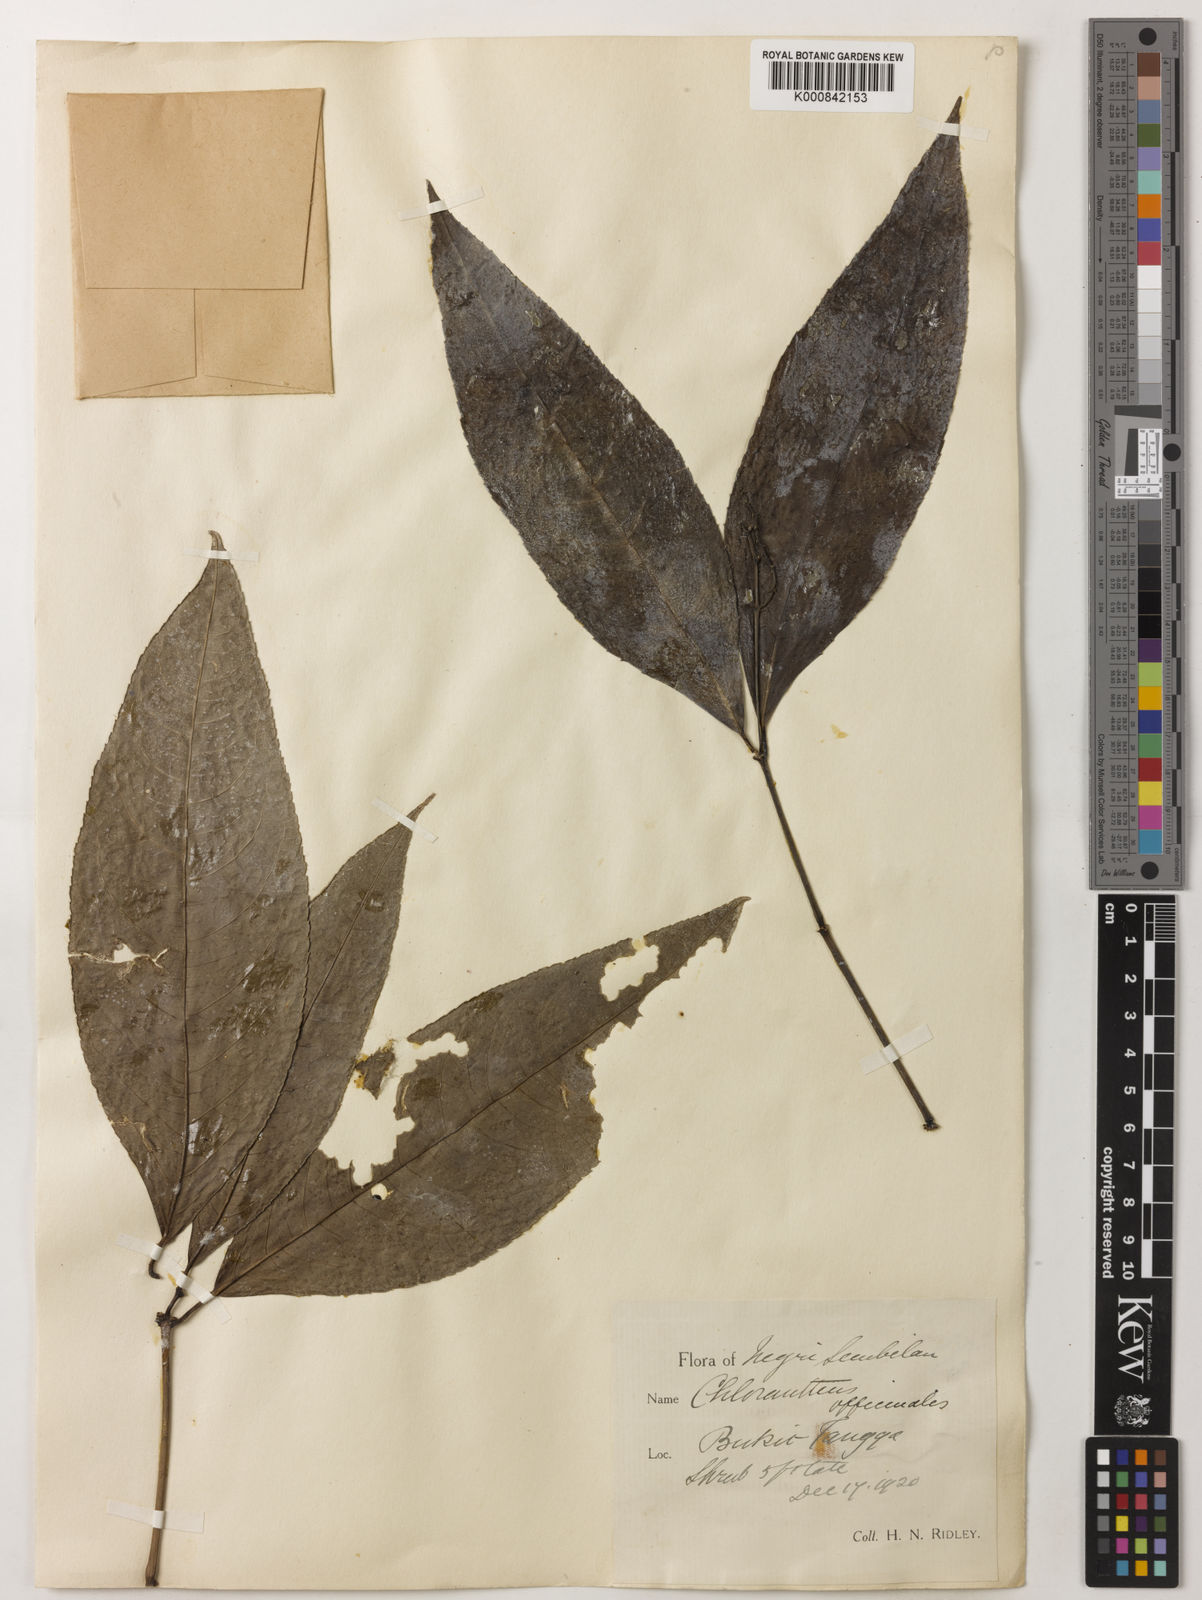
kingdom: Plantae
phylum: Tracheophyta
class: Magnoliopsida
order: Chloranthales
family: Chloranthaceae
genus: Chloranthus
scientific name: Chloranthus
